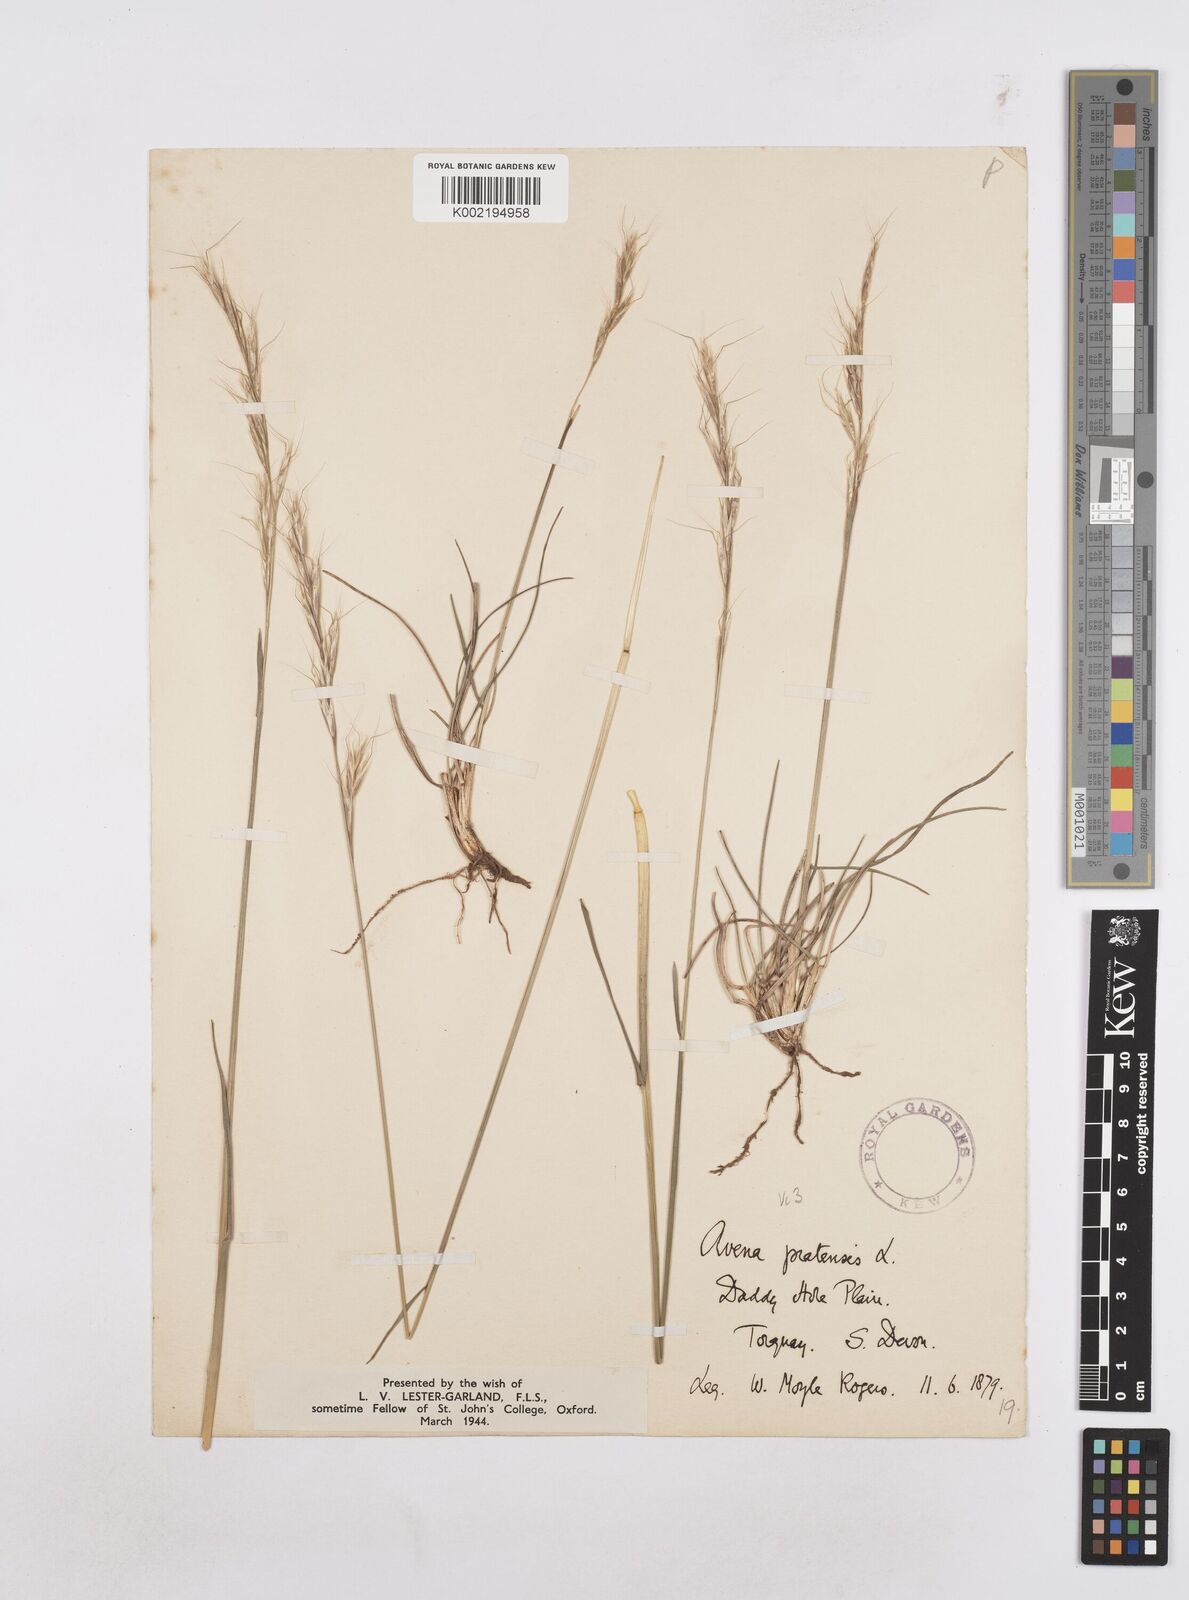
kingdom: Plantae
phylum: Tracheophyta
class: Liliopsida
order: Poales
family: Poaceae
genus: Helictochloa
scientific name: Helictochloa pratensis
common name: Meadow oat grass
